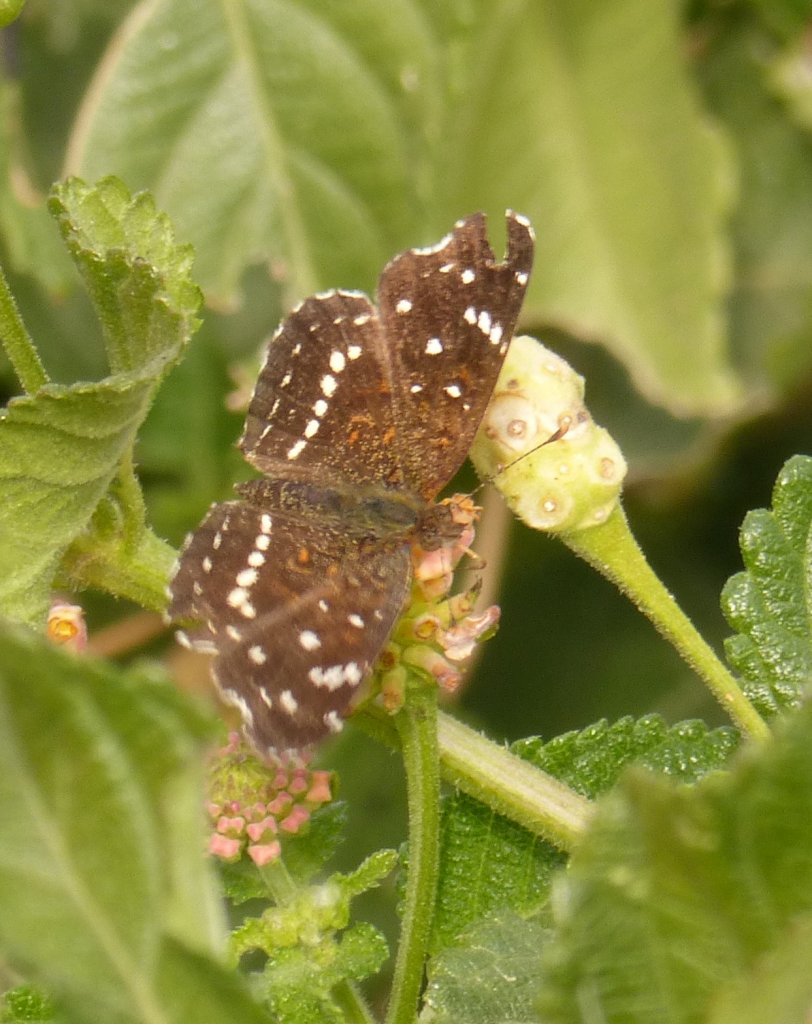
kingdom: Animalia
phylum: Arthropoda
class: Insecta
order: Lepidoptera
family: Nymphalidae
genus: Anthanassa
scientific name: Anthanassa texana
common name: Texan Crescent
